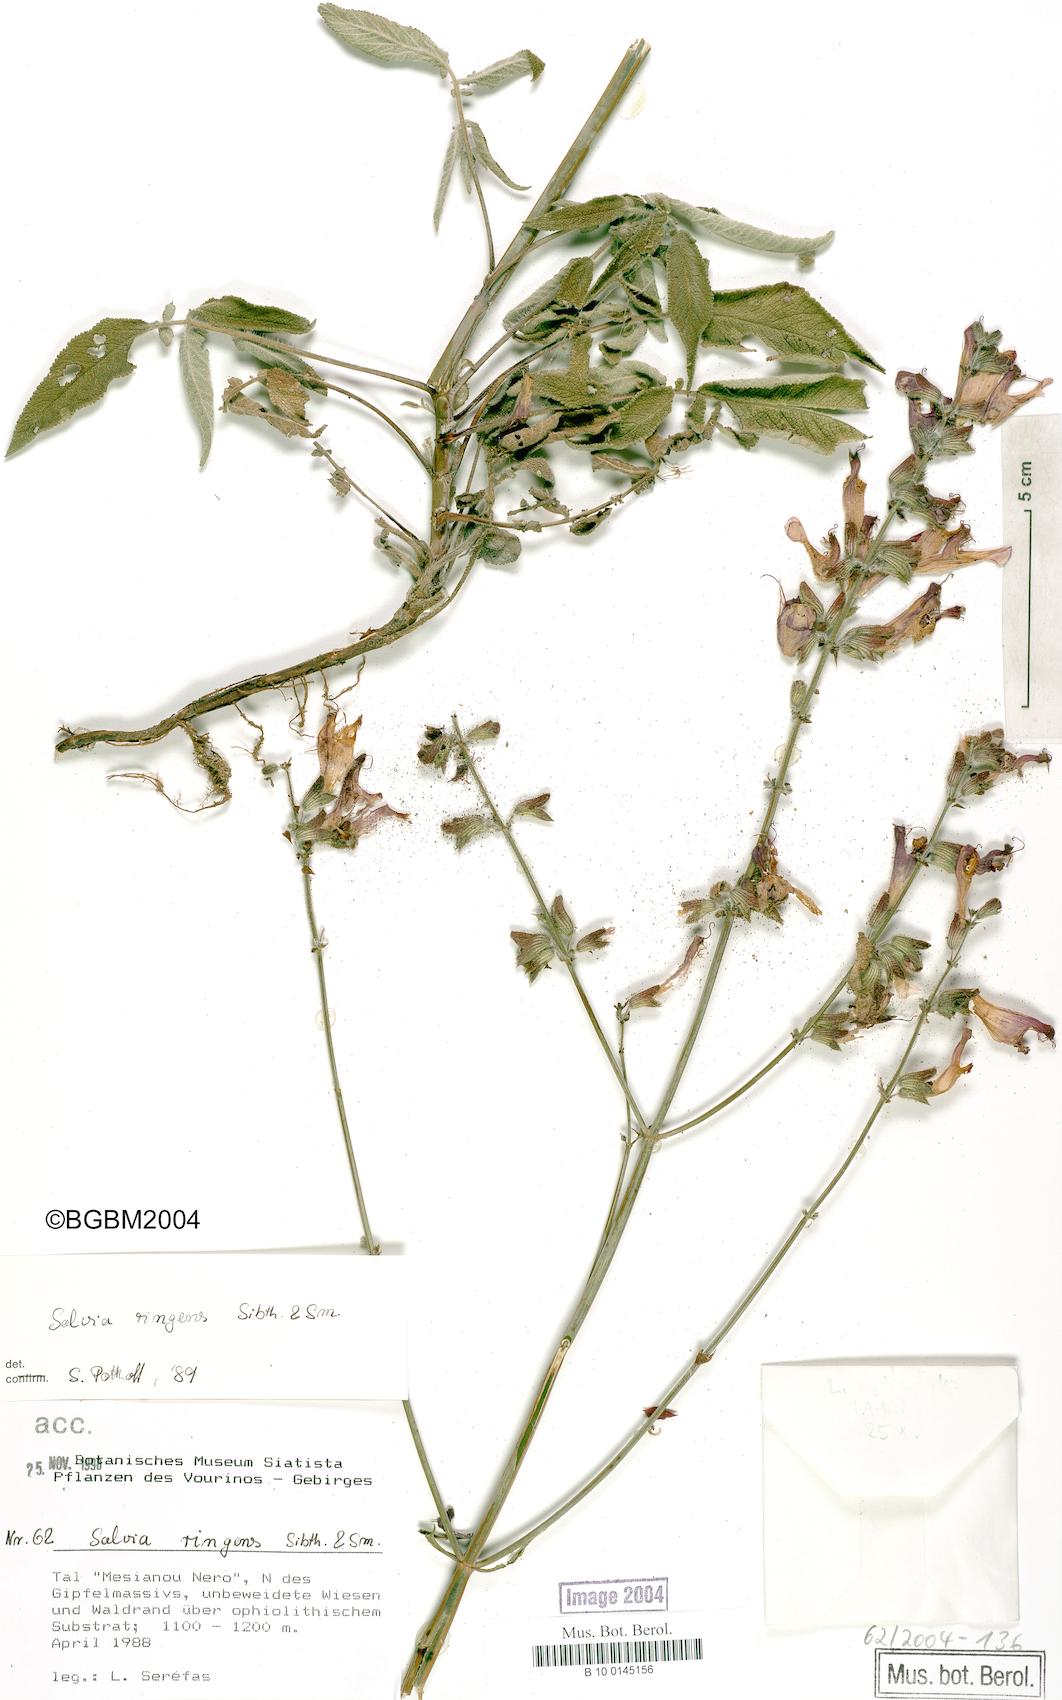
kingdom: Plantae
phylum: Tracheophyta
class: Magnoliopsida
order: Lamiales
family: Lamiaceae
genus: Salvia
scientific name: Salvia ringens
